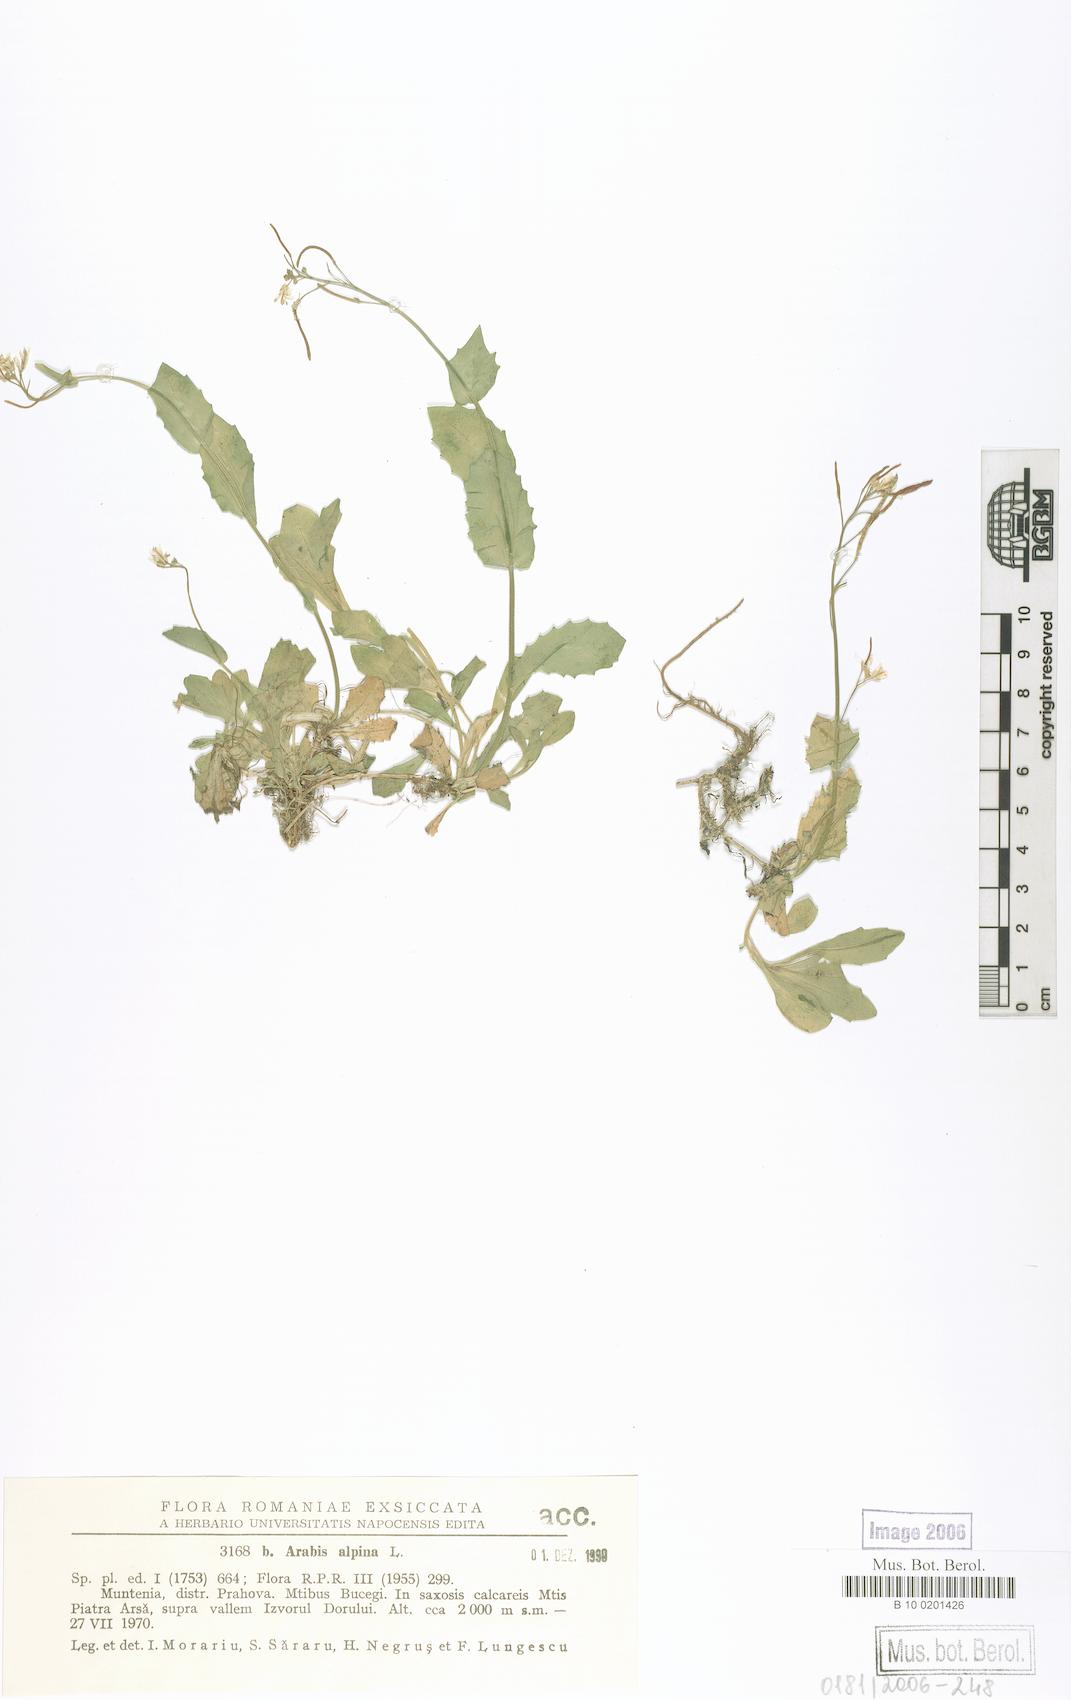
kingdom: Plantae
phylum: Tracheophyta
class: Magnoliopsida
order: Brassicales
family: Brassicaceae
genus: Arabis
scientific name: Arabis alpina
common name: Alpine rock-cress
